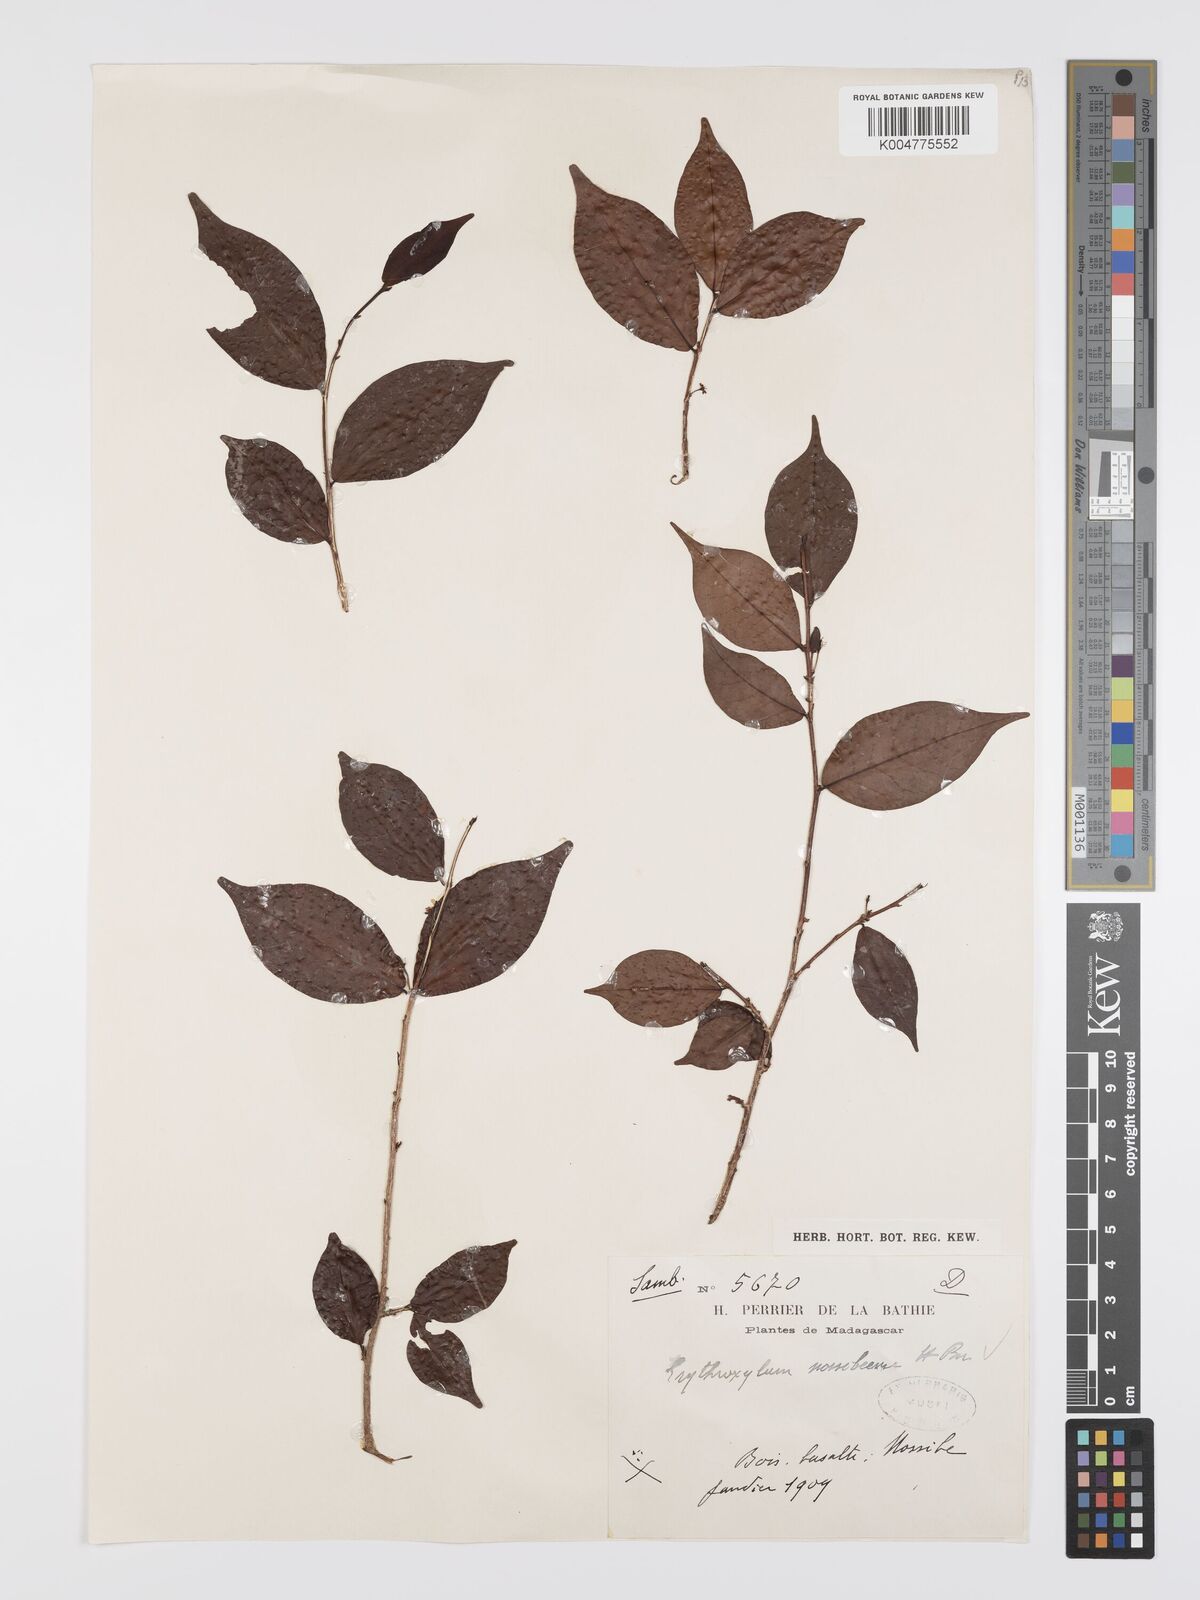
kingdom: Plantae
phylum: Tracheophyta
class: Magnoliopsida
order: Malpighiales
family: Erythroxylaceae
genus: Erythroxylum
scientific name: Erythroxylum nossibeense
